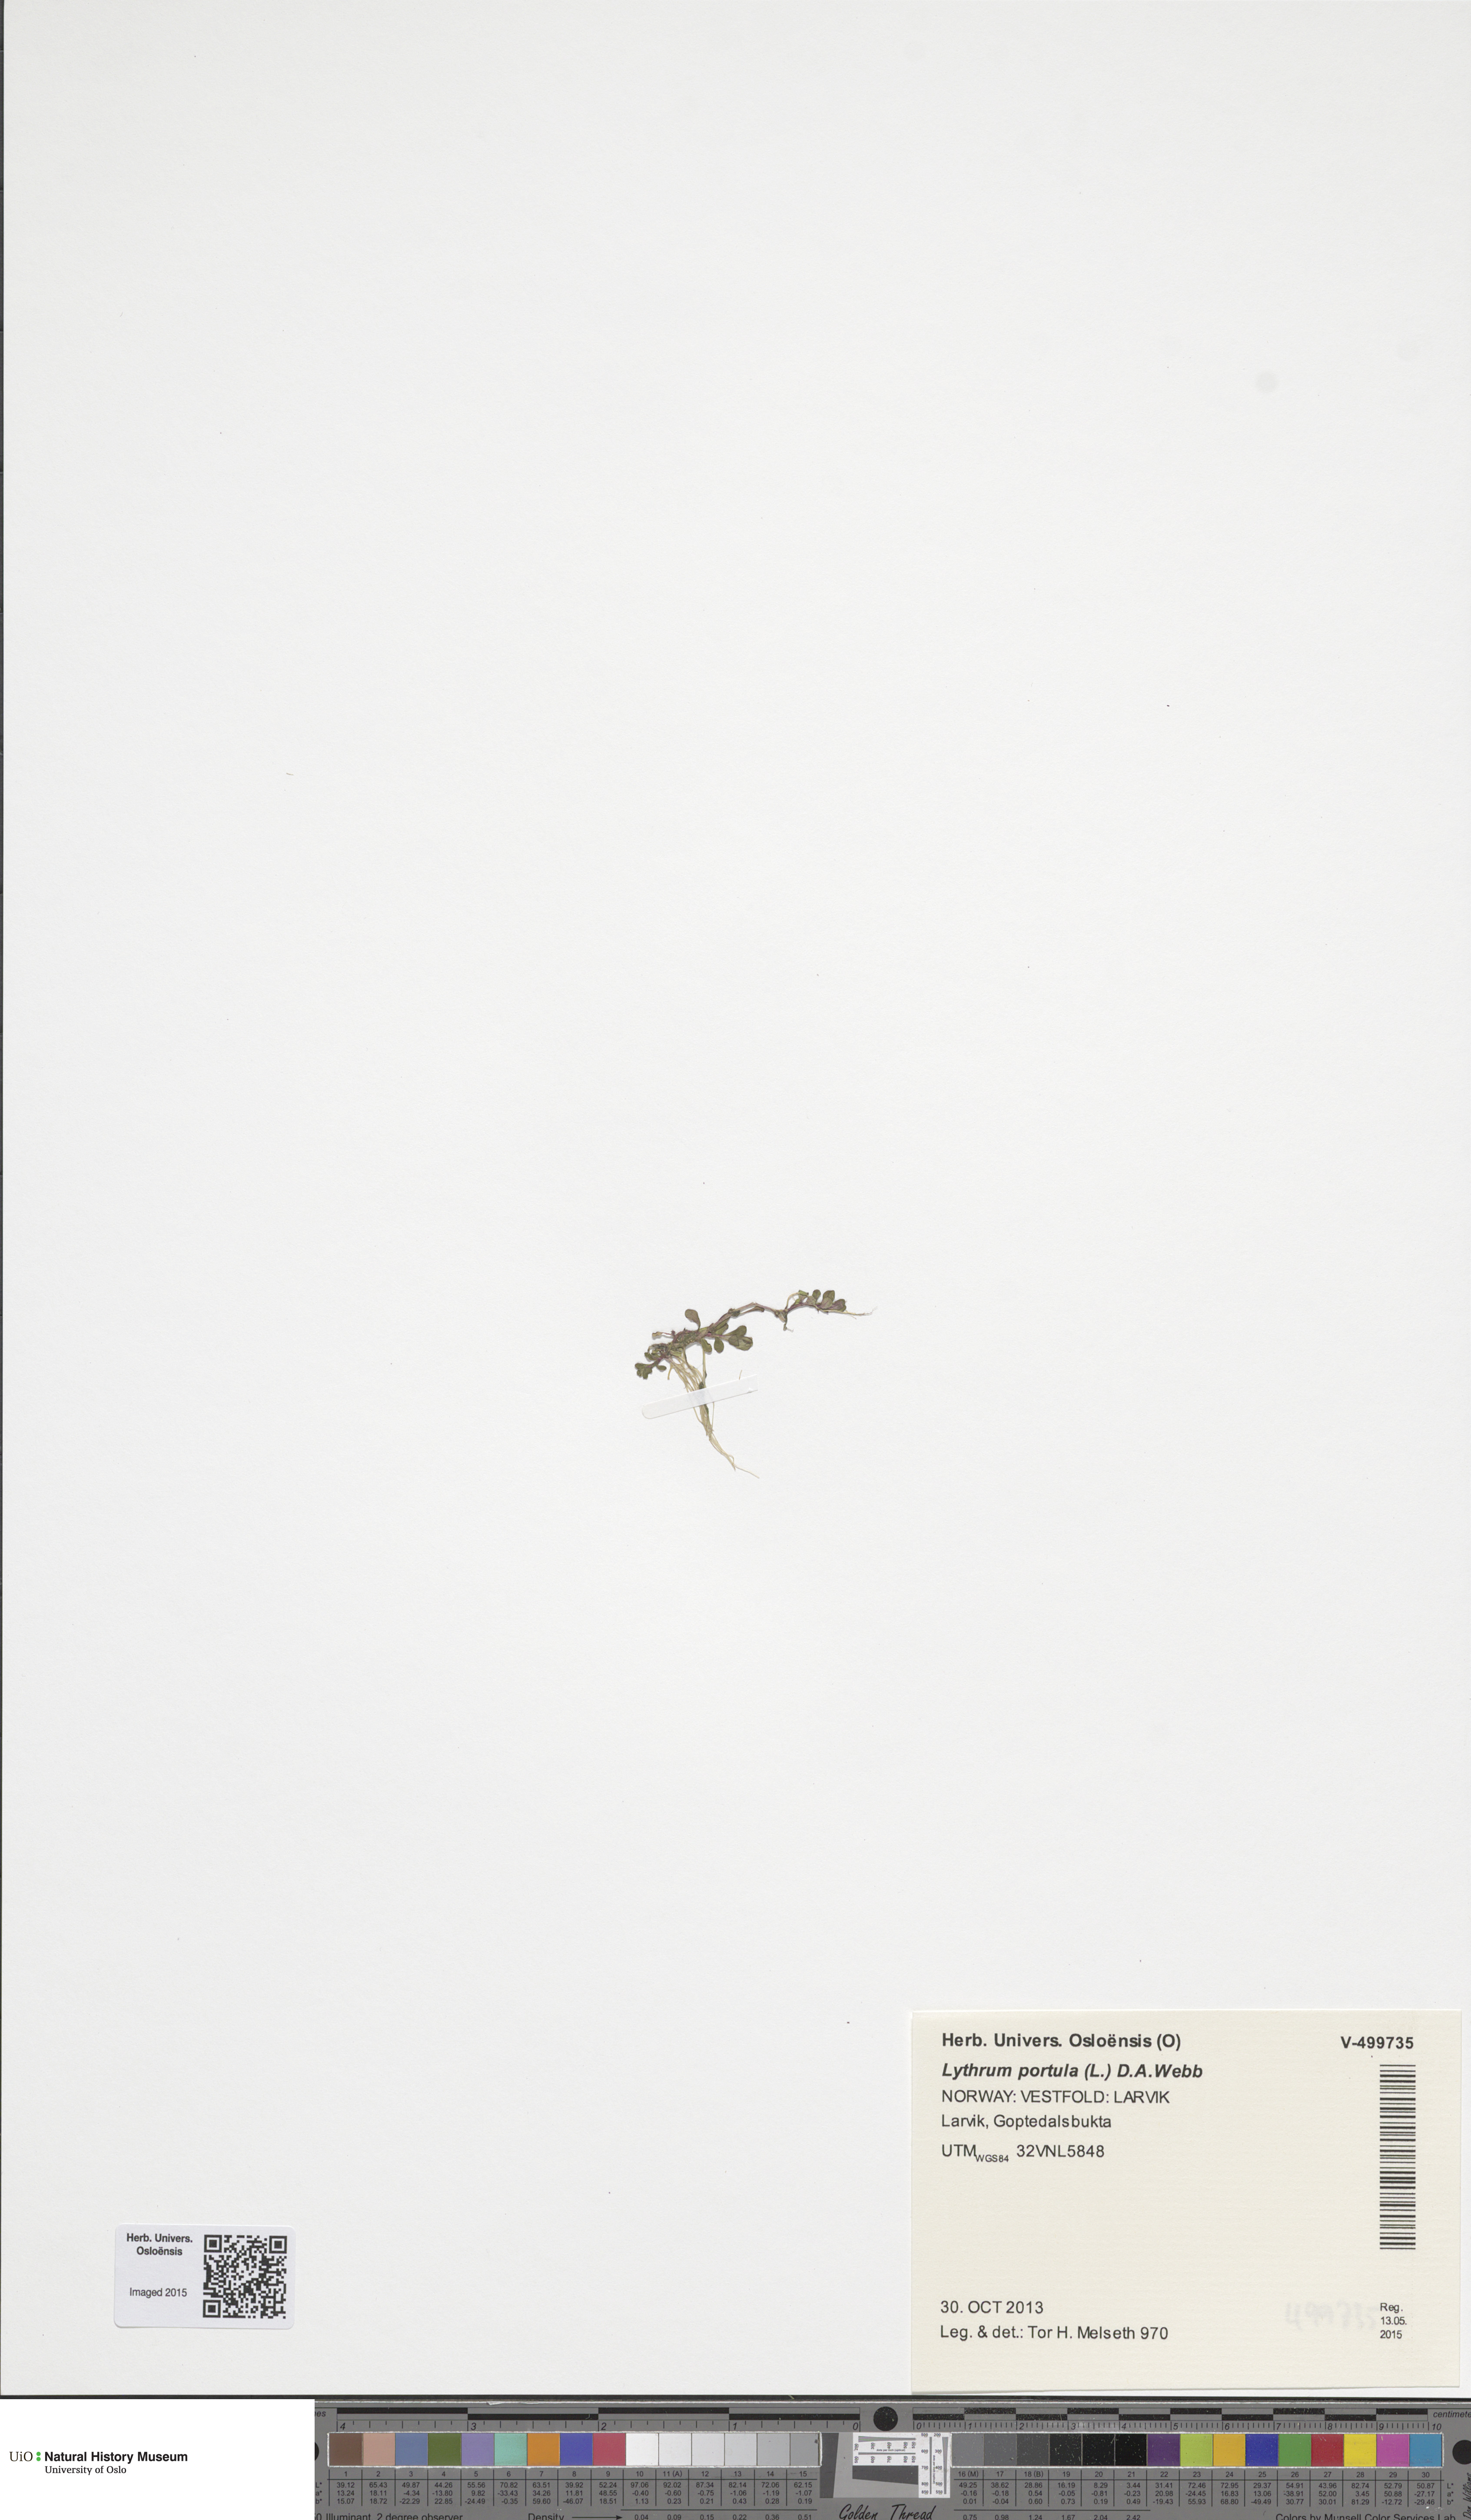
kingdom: Plantae
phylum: Tracheophyta
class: Magnoliopsida
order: Myrtales
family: Lythraceae
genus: Lythrum
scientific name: Lythrum portula
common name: Water purslane
